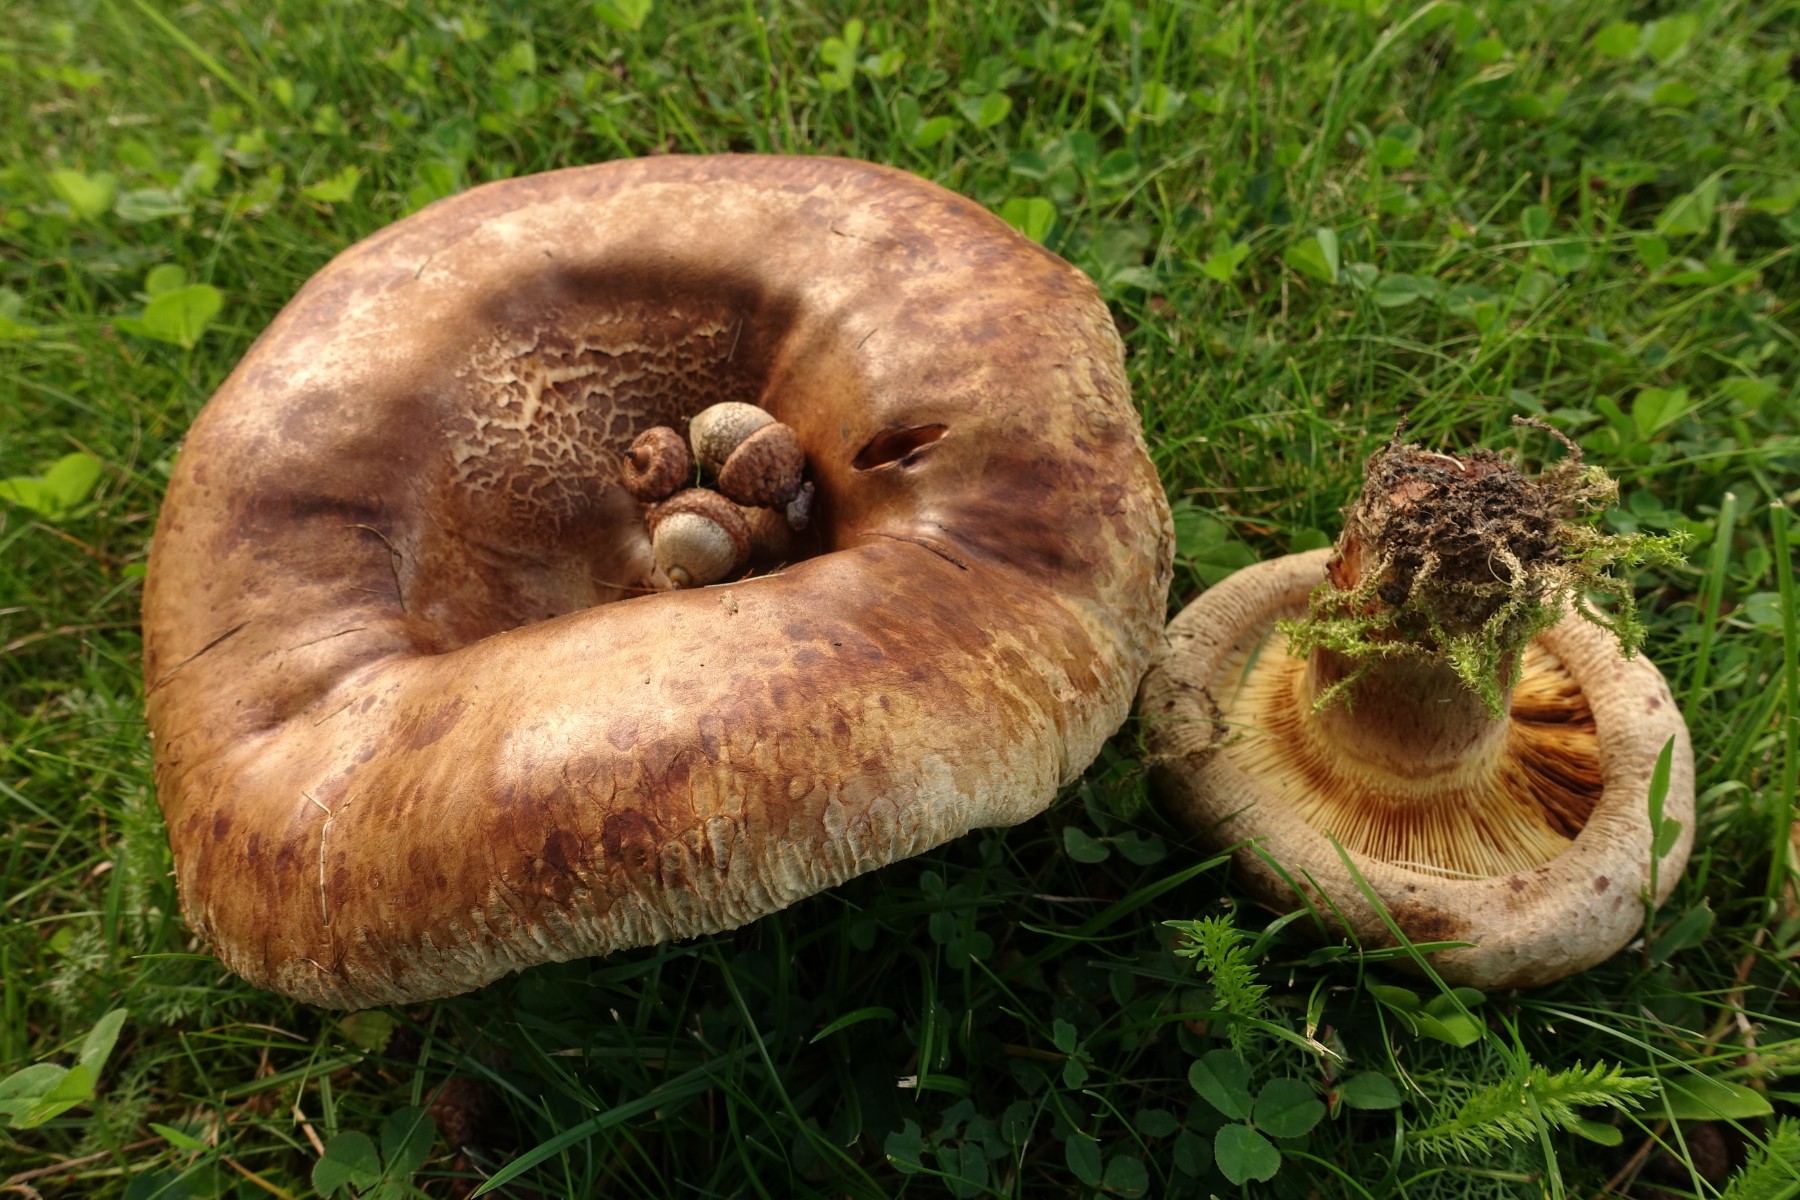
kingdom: Fungi
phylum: Basidiomycota
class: Agaricomycetes
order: Boletales
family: Paxillaceae
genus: Paxillus
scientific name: Paxillus obscurisporus
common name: mahognisporet netbladhat
